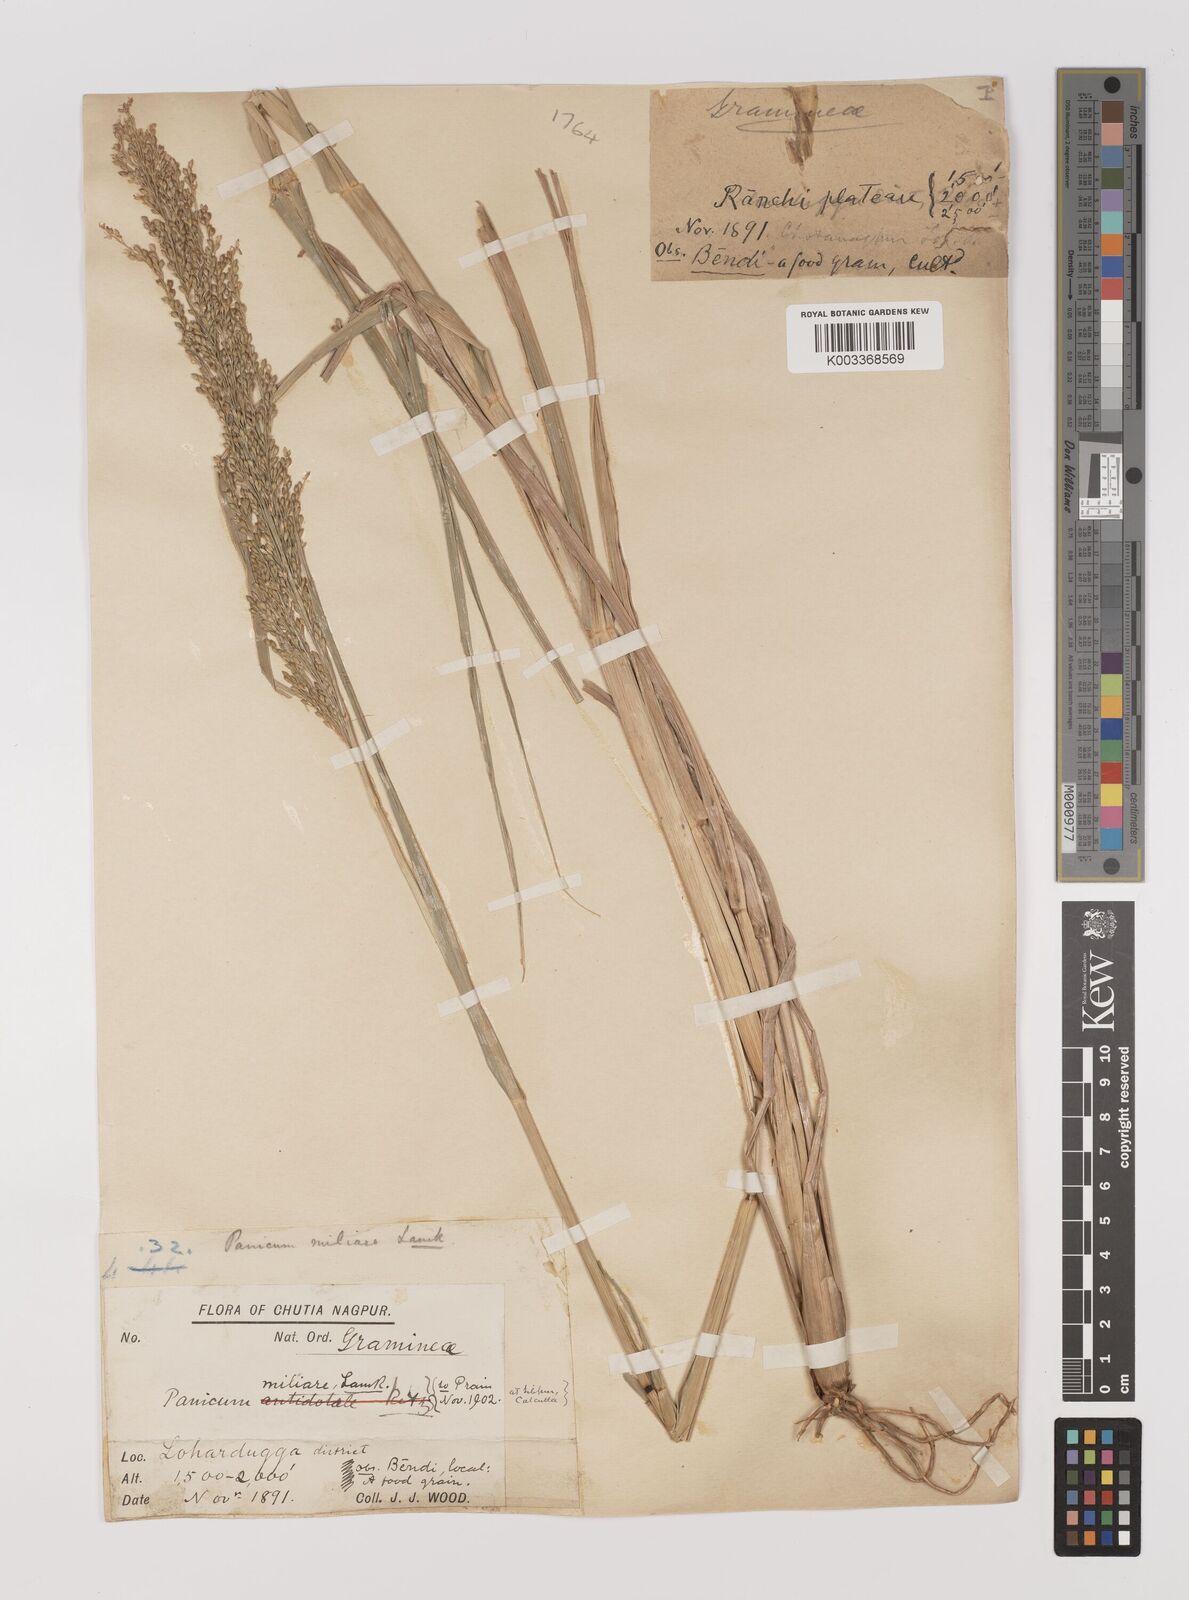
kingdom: Plantae
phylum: Tracheophyta
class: Liliopsida
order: Poales
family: Poaceae
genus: Panicum
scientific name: Panicum sumatrense
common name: Little millet
